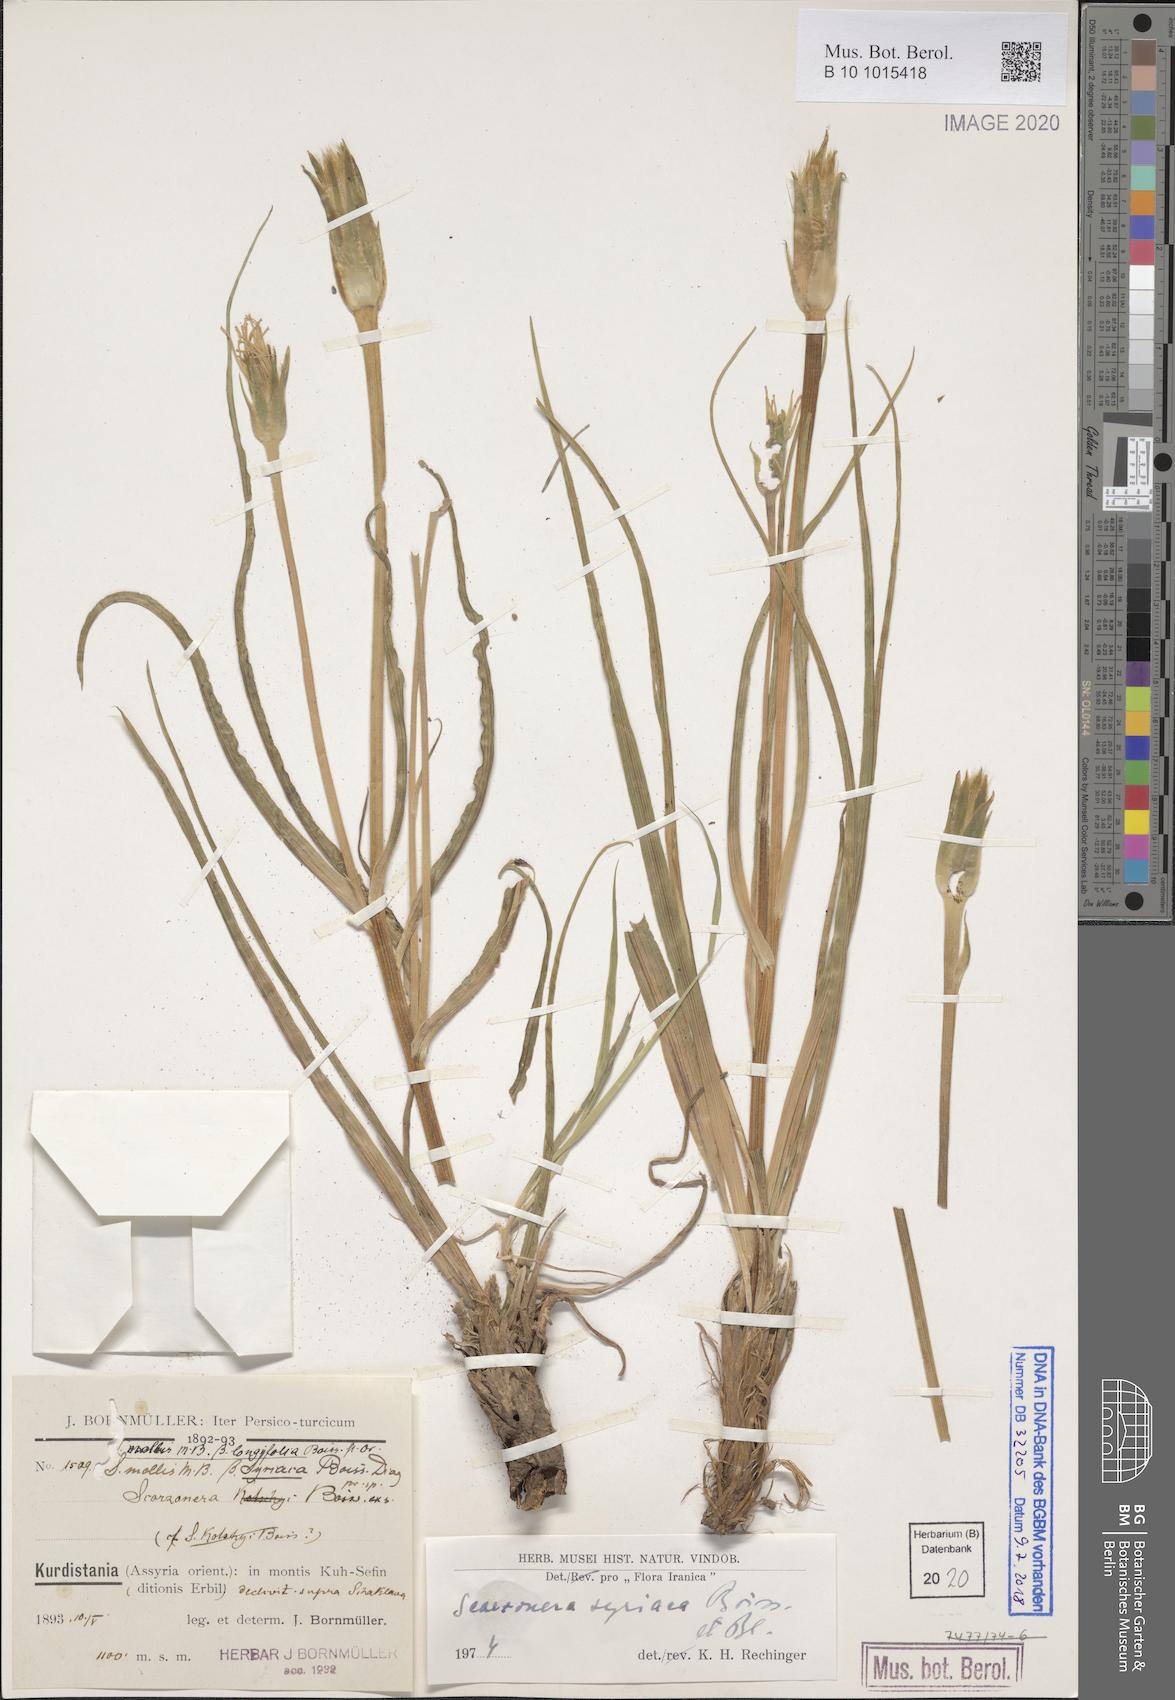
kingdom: Plantae
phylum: Tracheophyta
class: Magnoliopsida
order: Asterales
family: Asteraceae
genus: Candollea
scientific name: Candollea syriaca
